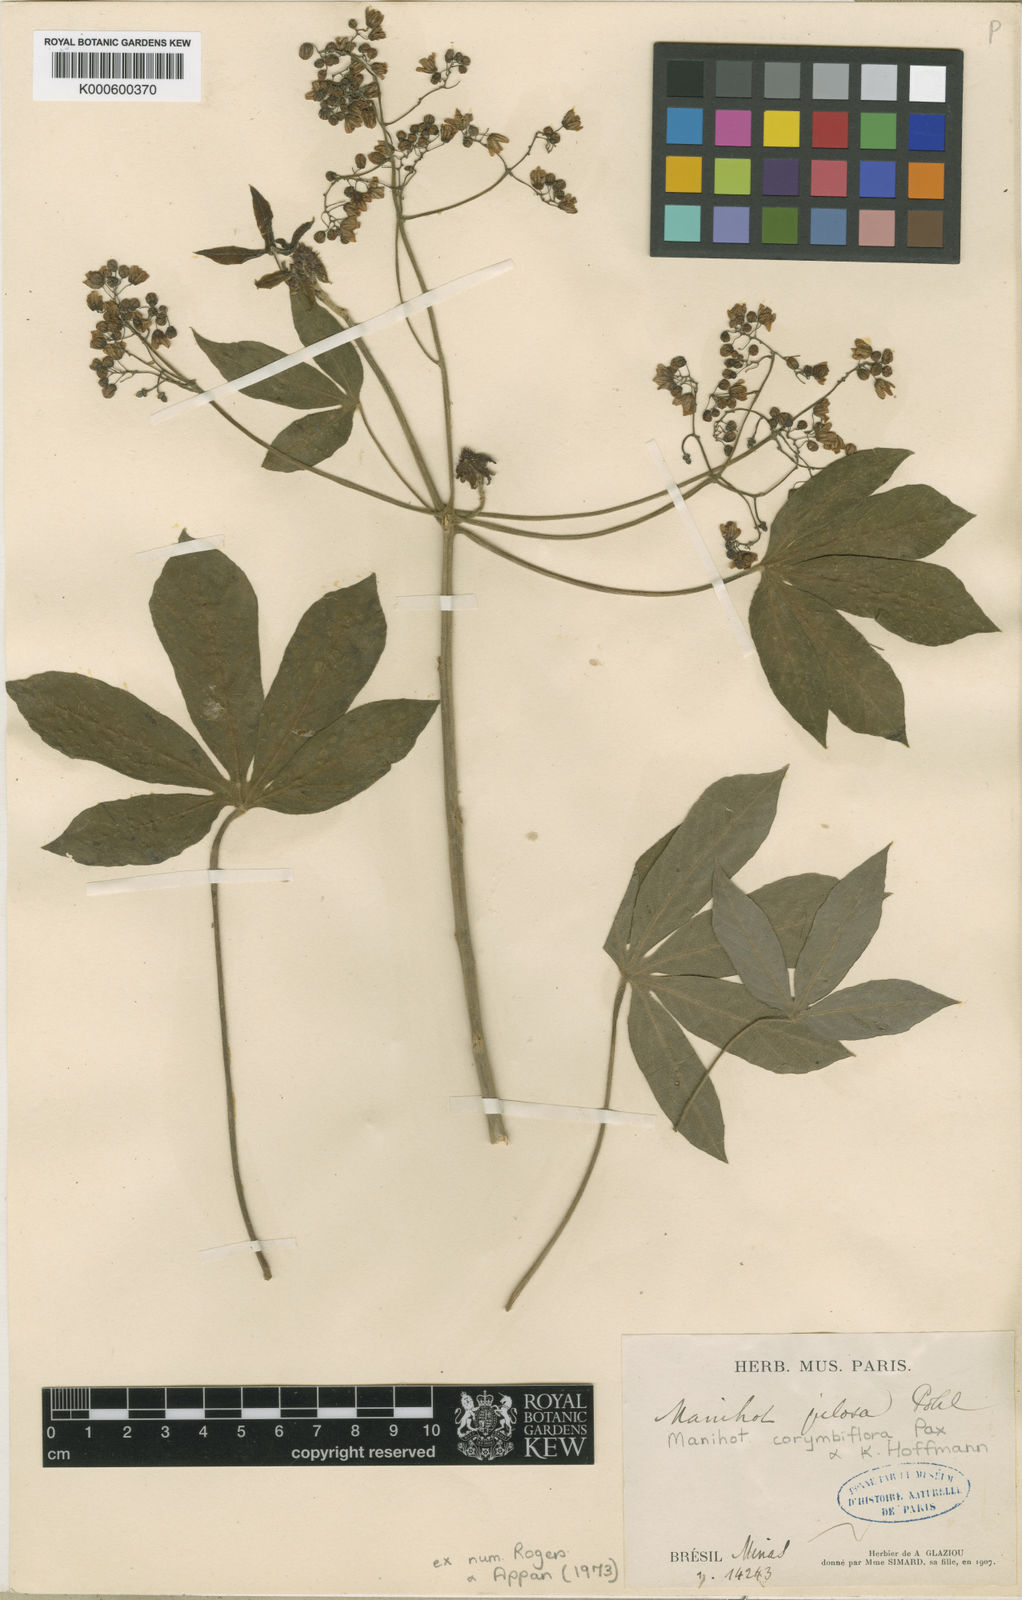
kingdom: Plantae
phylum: Tracheophyta
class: Magnoliopsida
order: Malpighiales
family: Euphorbiaceae
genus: Manihot
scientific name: Manihot corymbiflora
